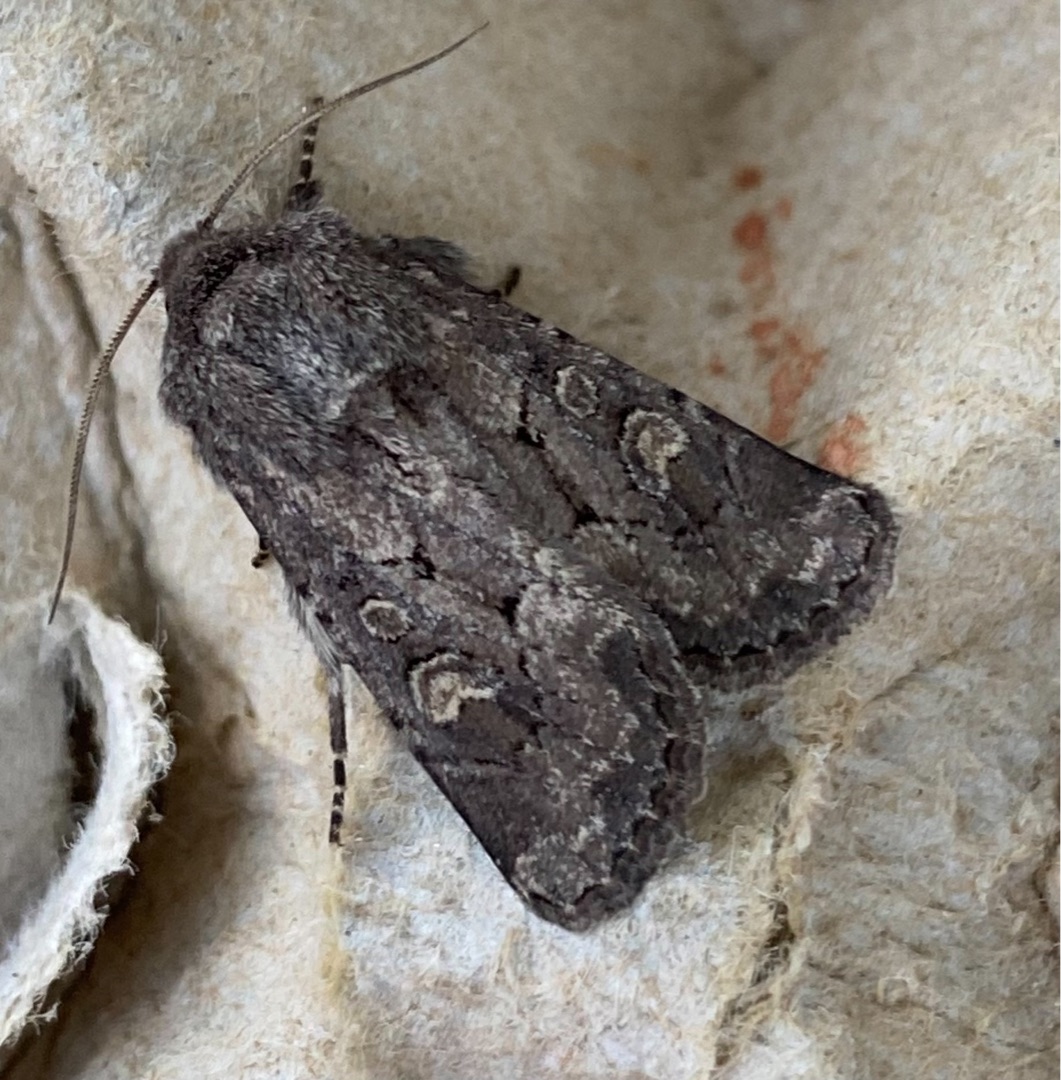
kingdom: Animalia
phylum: Arthropoda
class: Insecta
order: Lepidoptera
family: Noctuidae
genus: Luperina
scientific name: Luperina testacea
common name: Frøgræsugle
